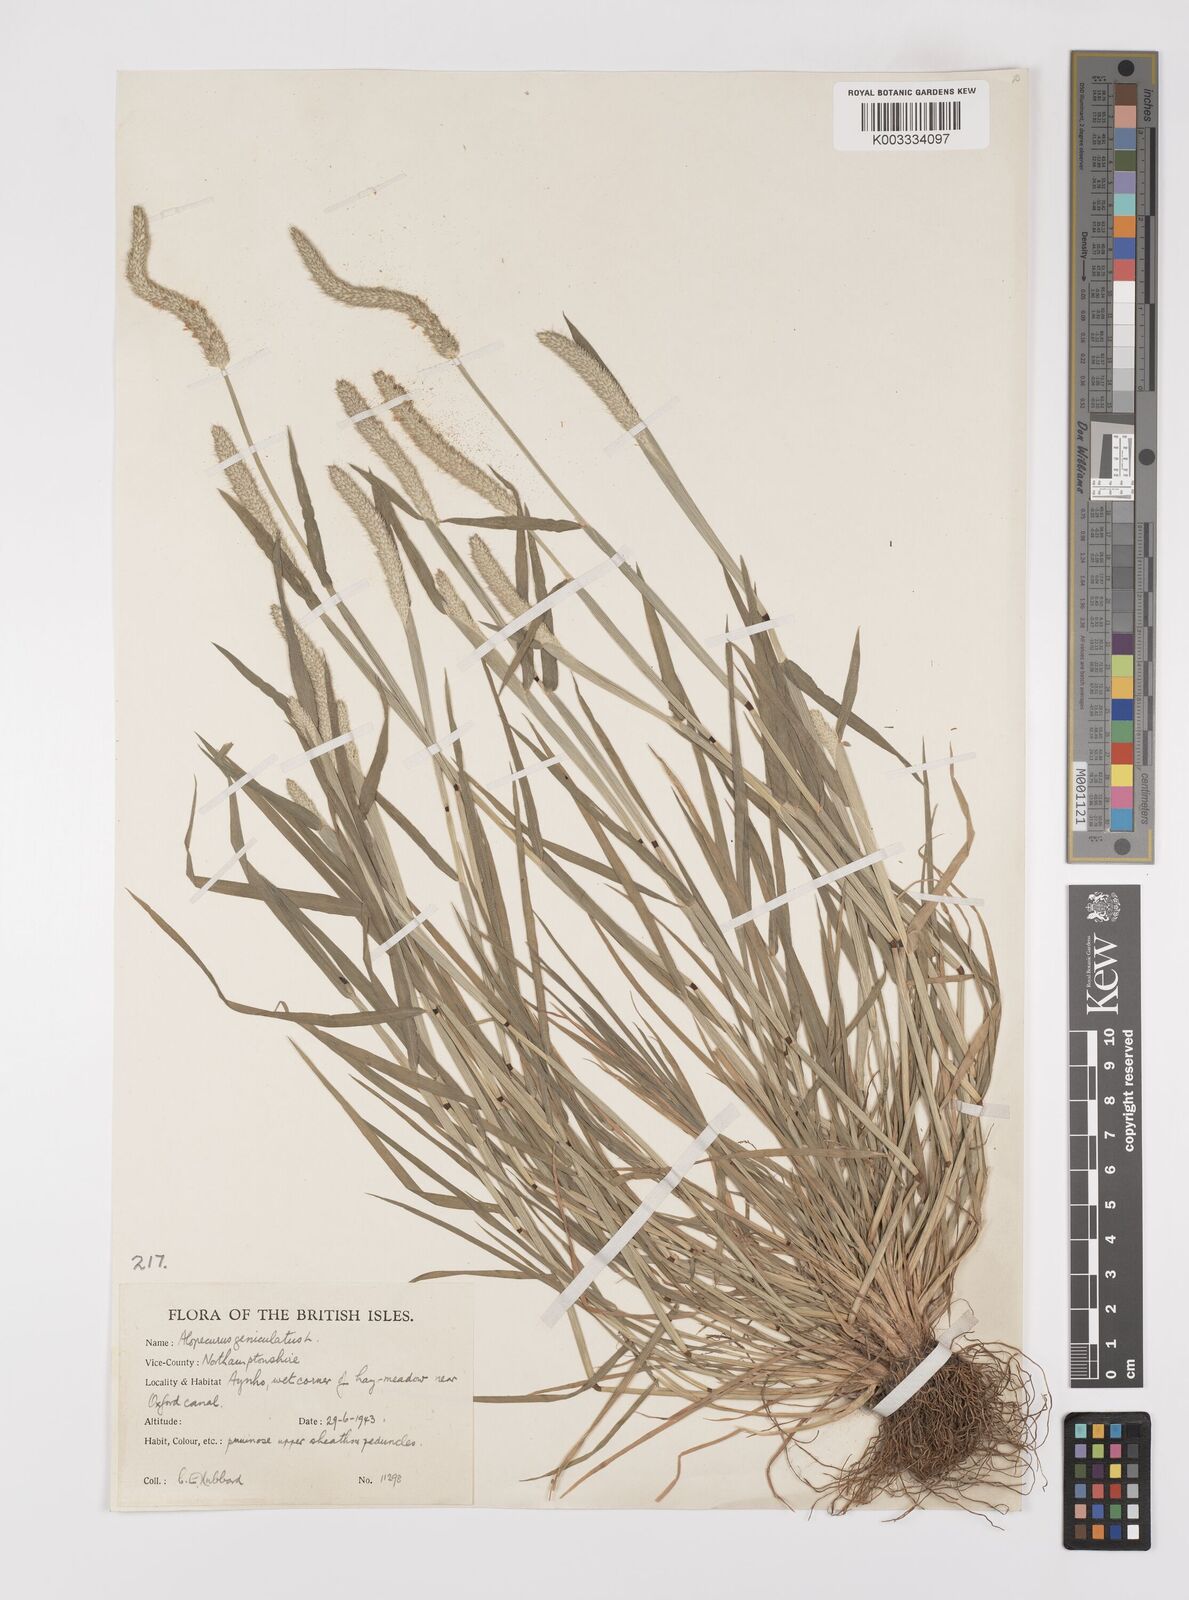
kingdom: Plantae
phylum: Tracheophyta
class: Liliopsida
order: Poales
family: Poaceae
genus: Alopecurus
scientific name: Alopecurus geniculatus
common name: Water foxtail
